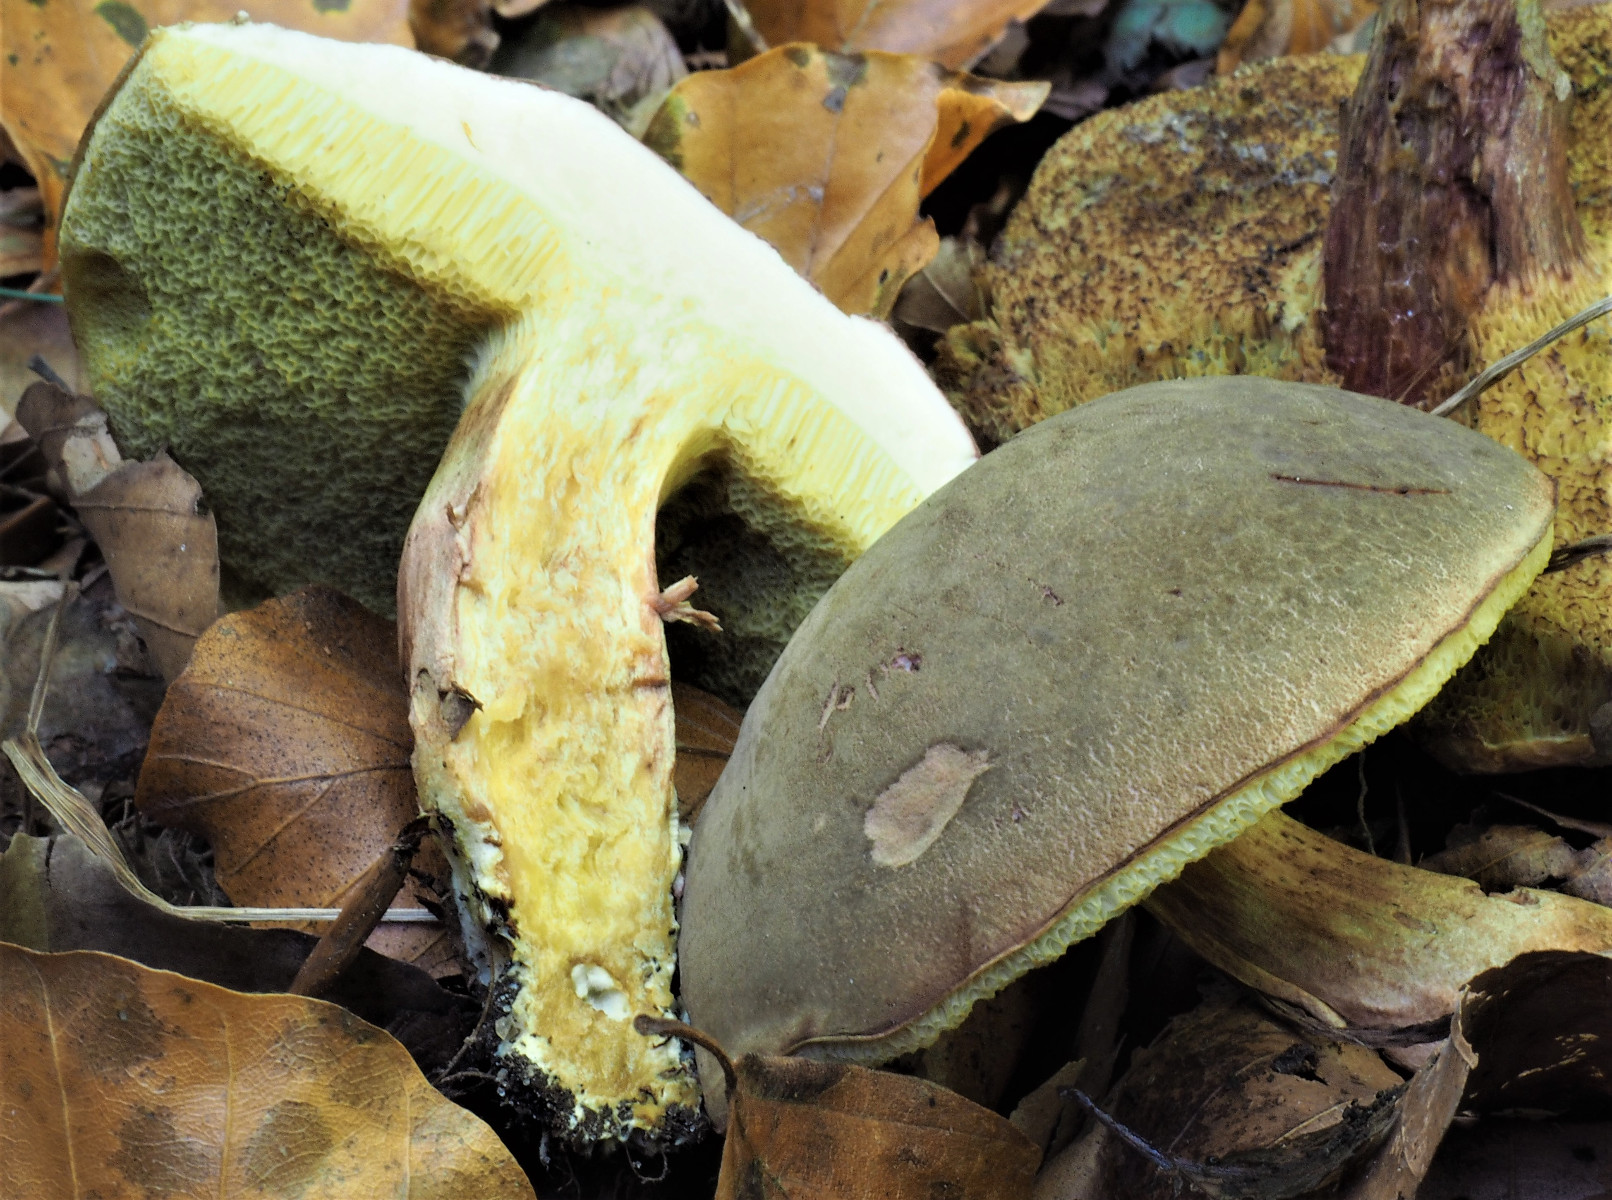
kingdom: Fungi
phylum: Basidiomycota
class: Agaricomycetes
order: Boletales
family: Boletaceae
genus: Xerocomellus
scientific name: Xerocomellus pruinatus
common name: dugget rørhat
